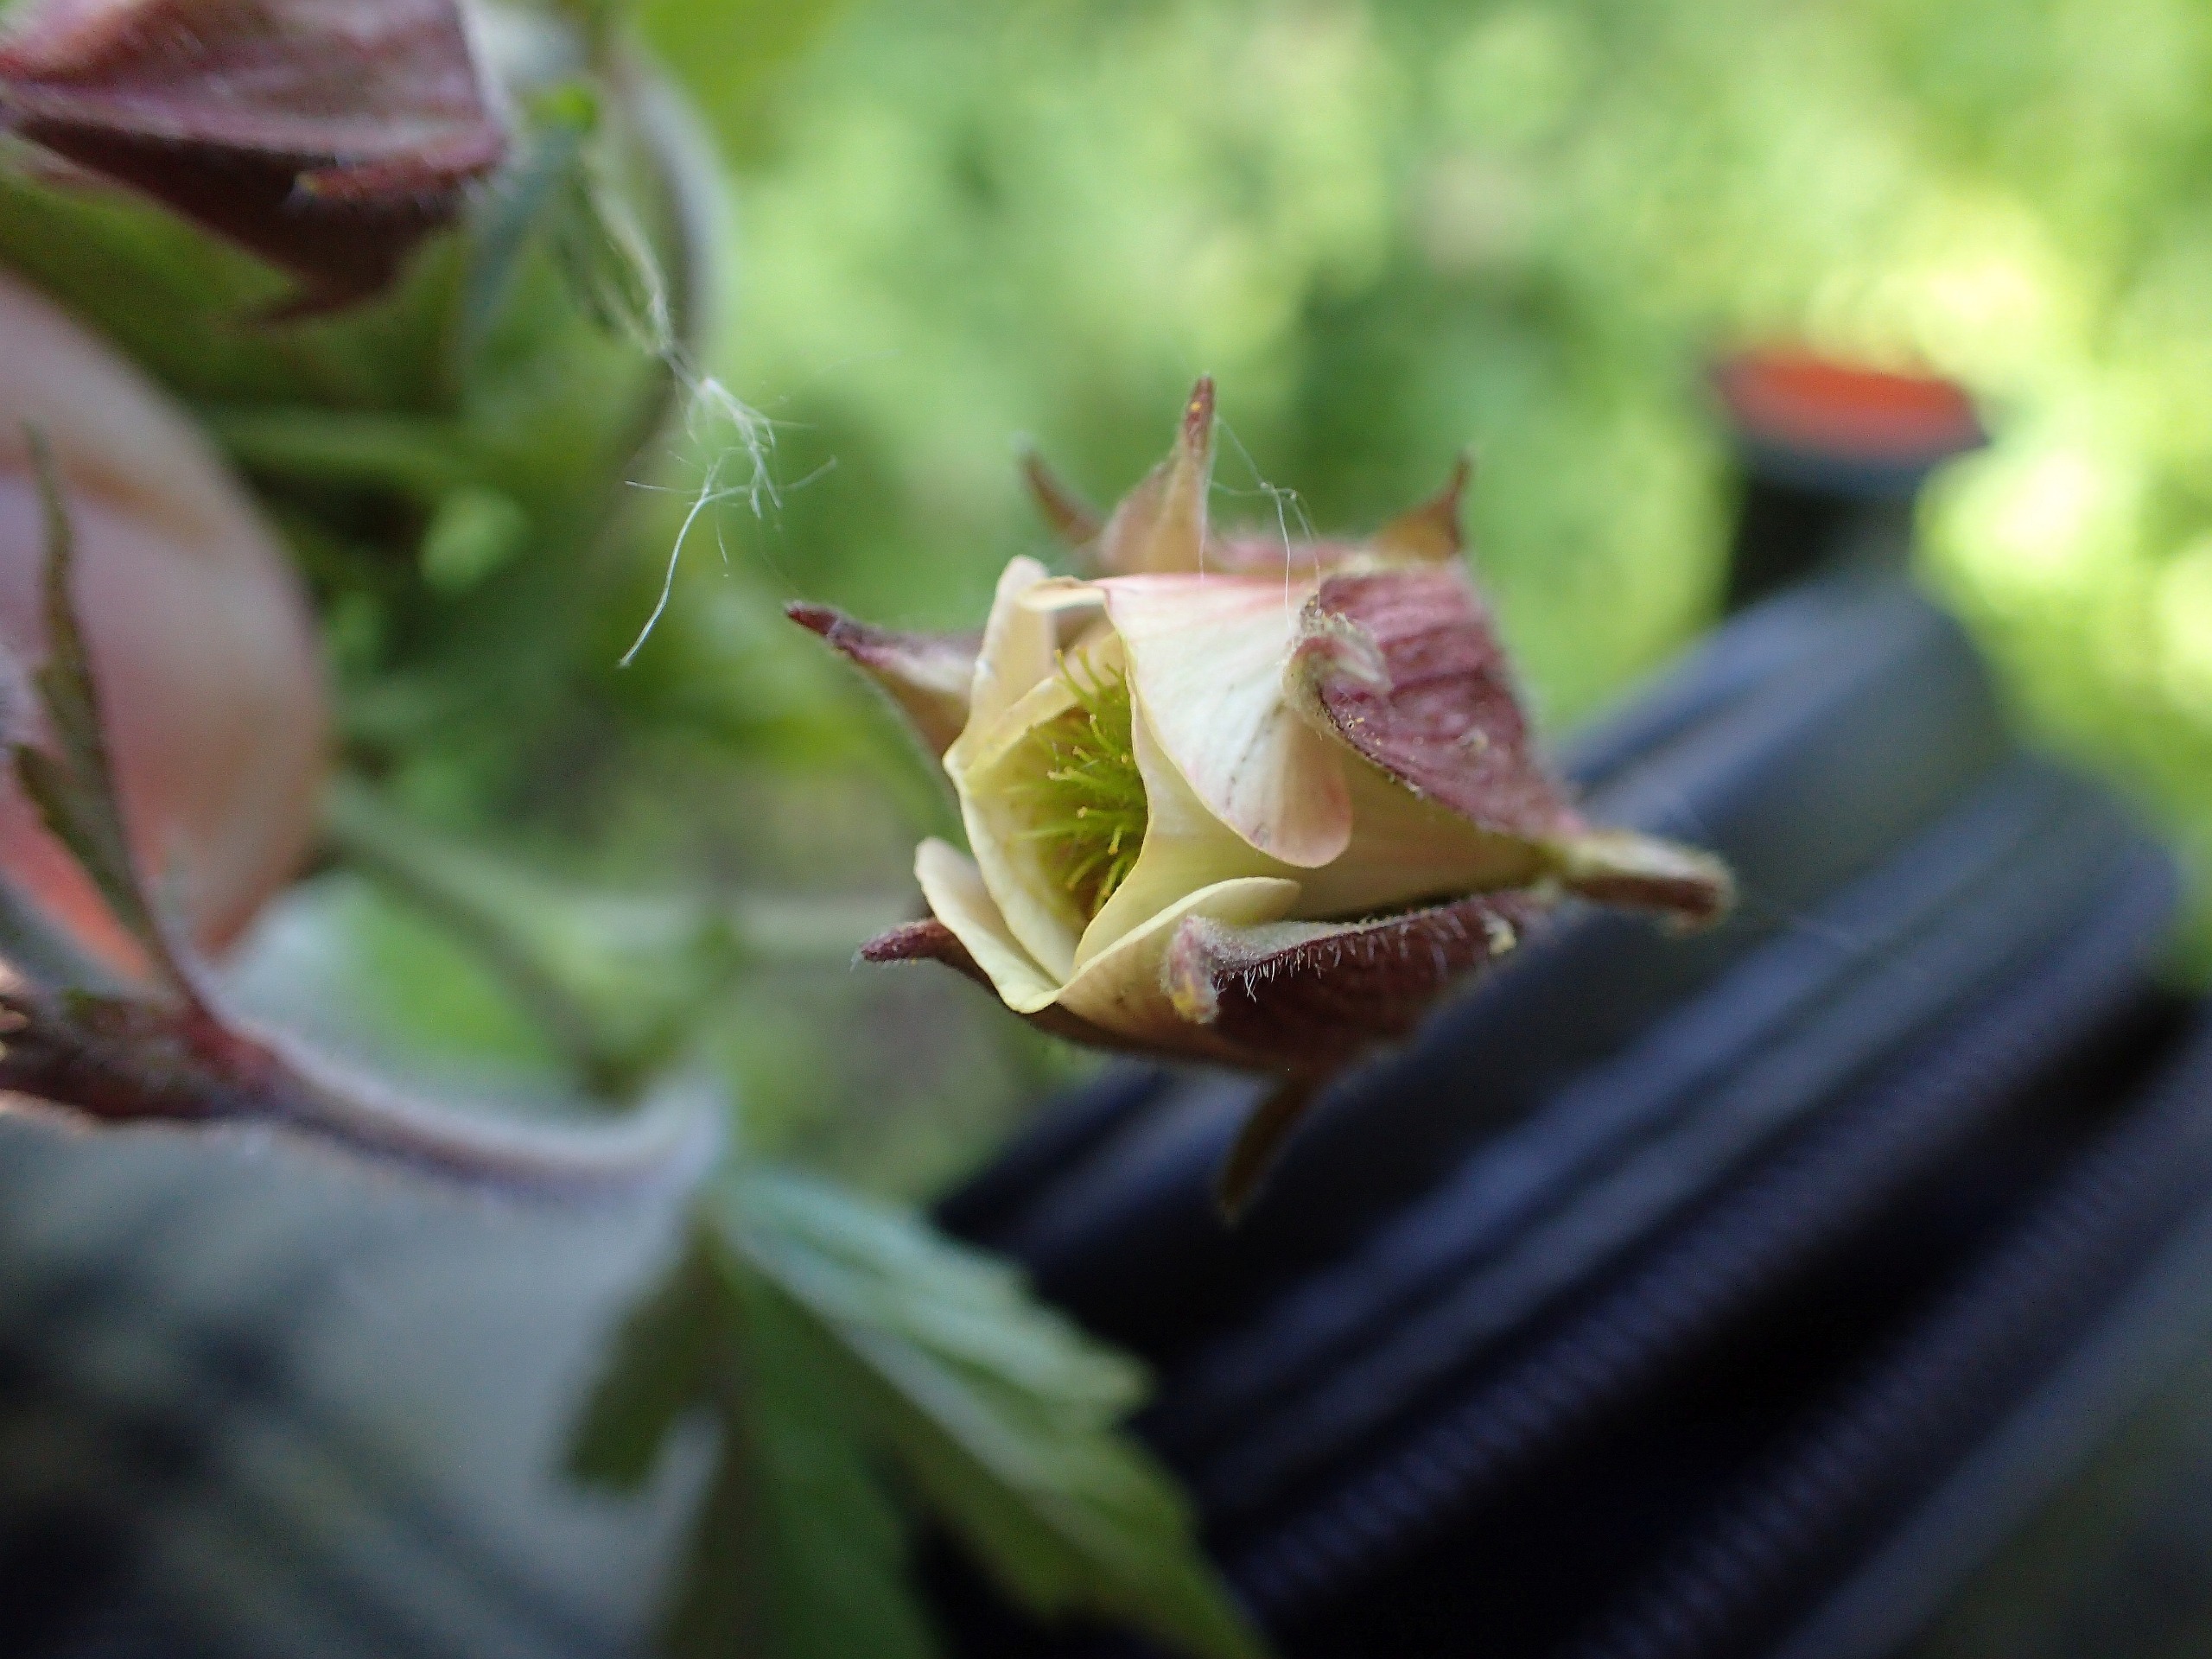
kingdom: Plantae
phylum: Tracheophyta
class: Magnoliopsida
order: Rosales
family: Rosaceae
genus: Geum
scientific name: Geum rivale
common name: Eng-nellikerod
